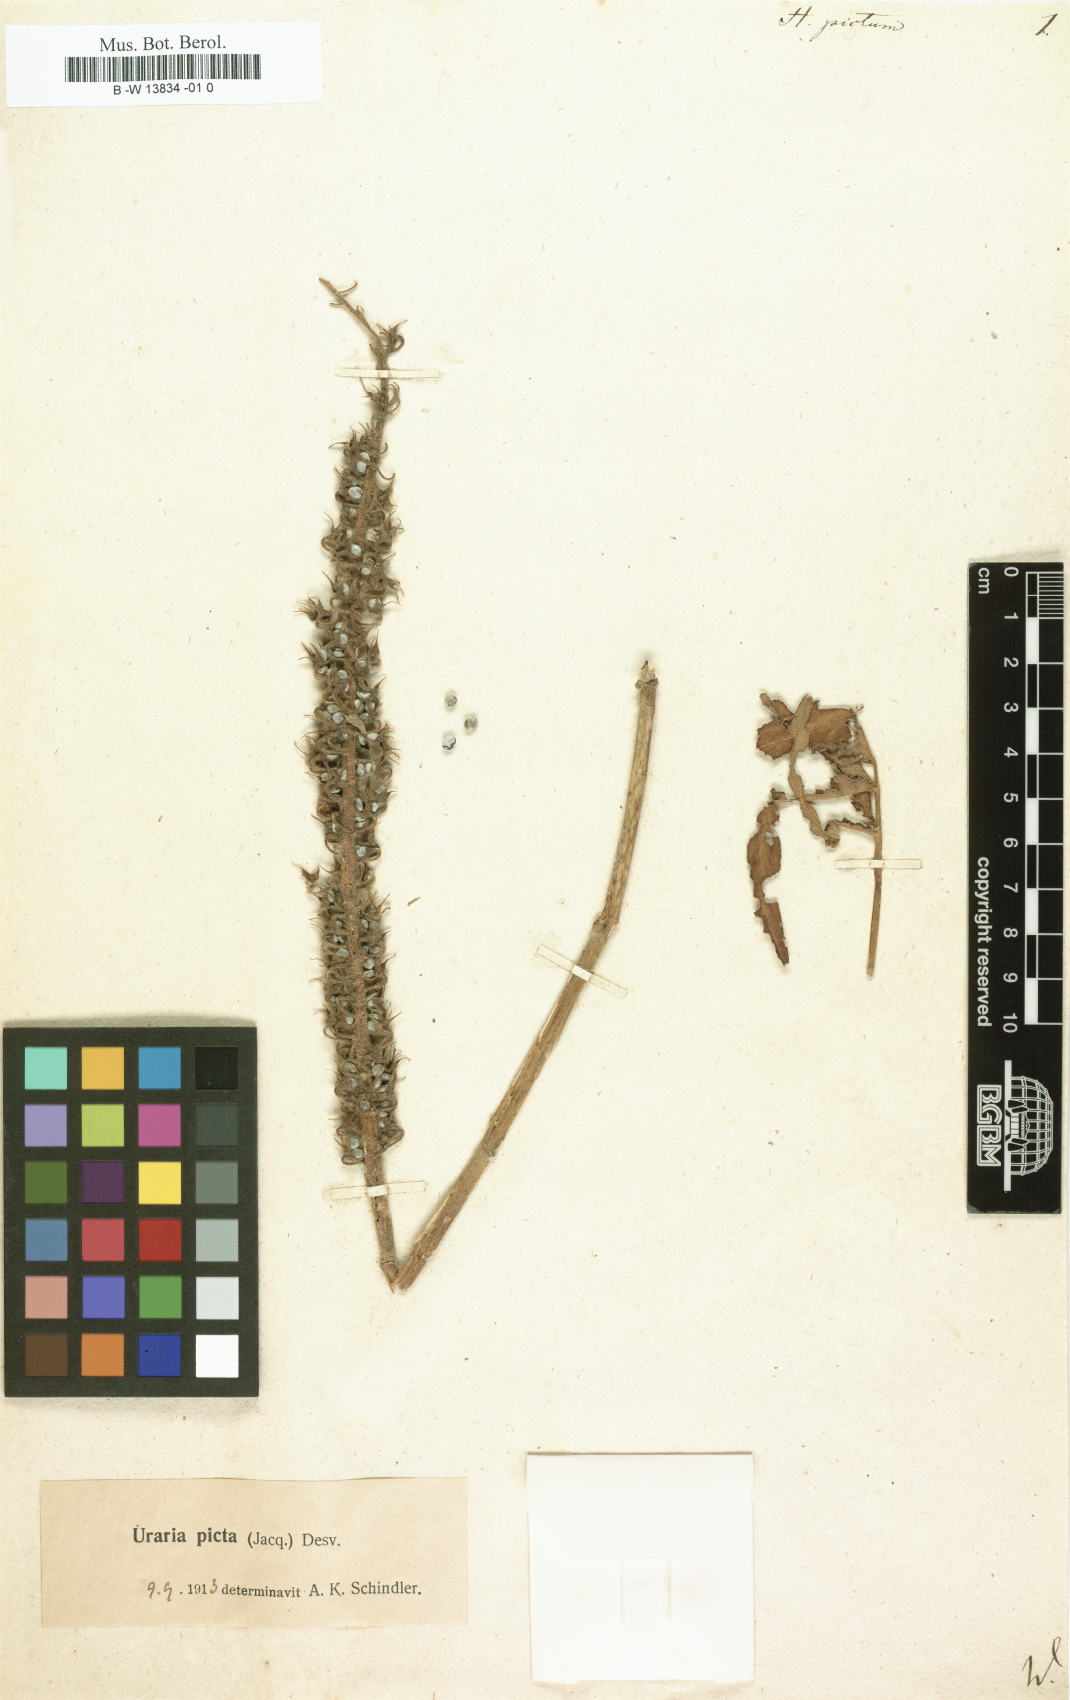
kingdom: Plantae
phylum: Tracheophyta
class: Magnoliopsida
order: Fabales
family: Fabaceae
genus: Uraria
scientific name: Uraria picta
